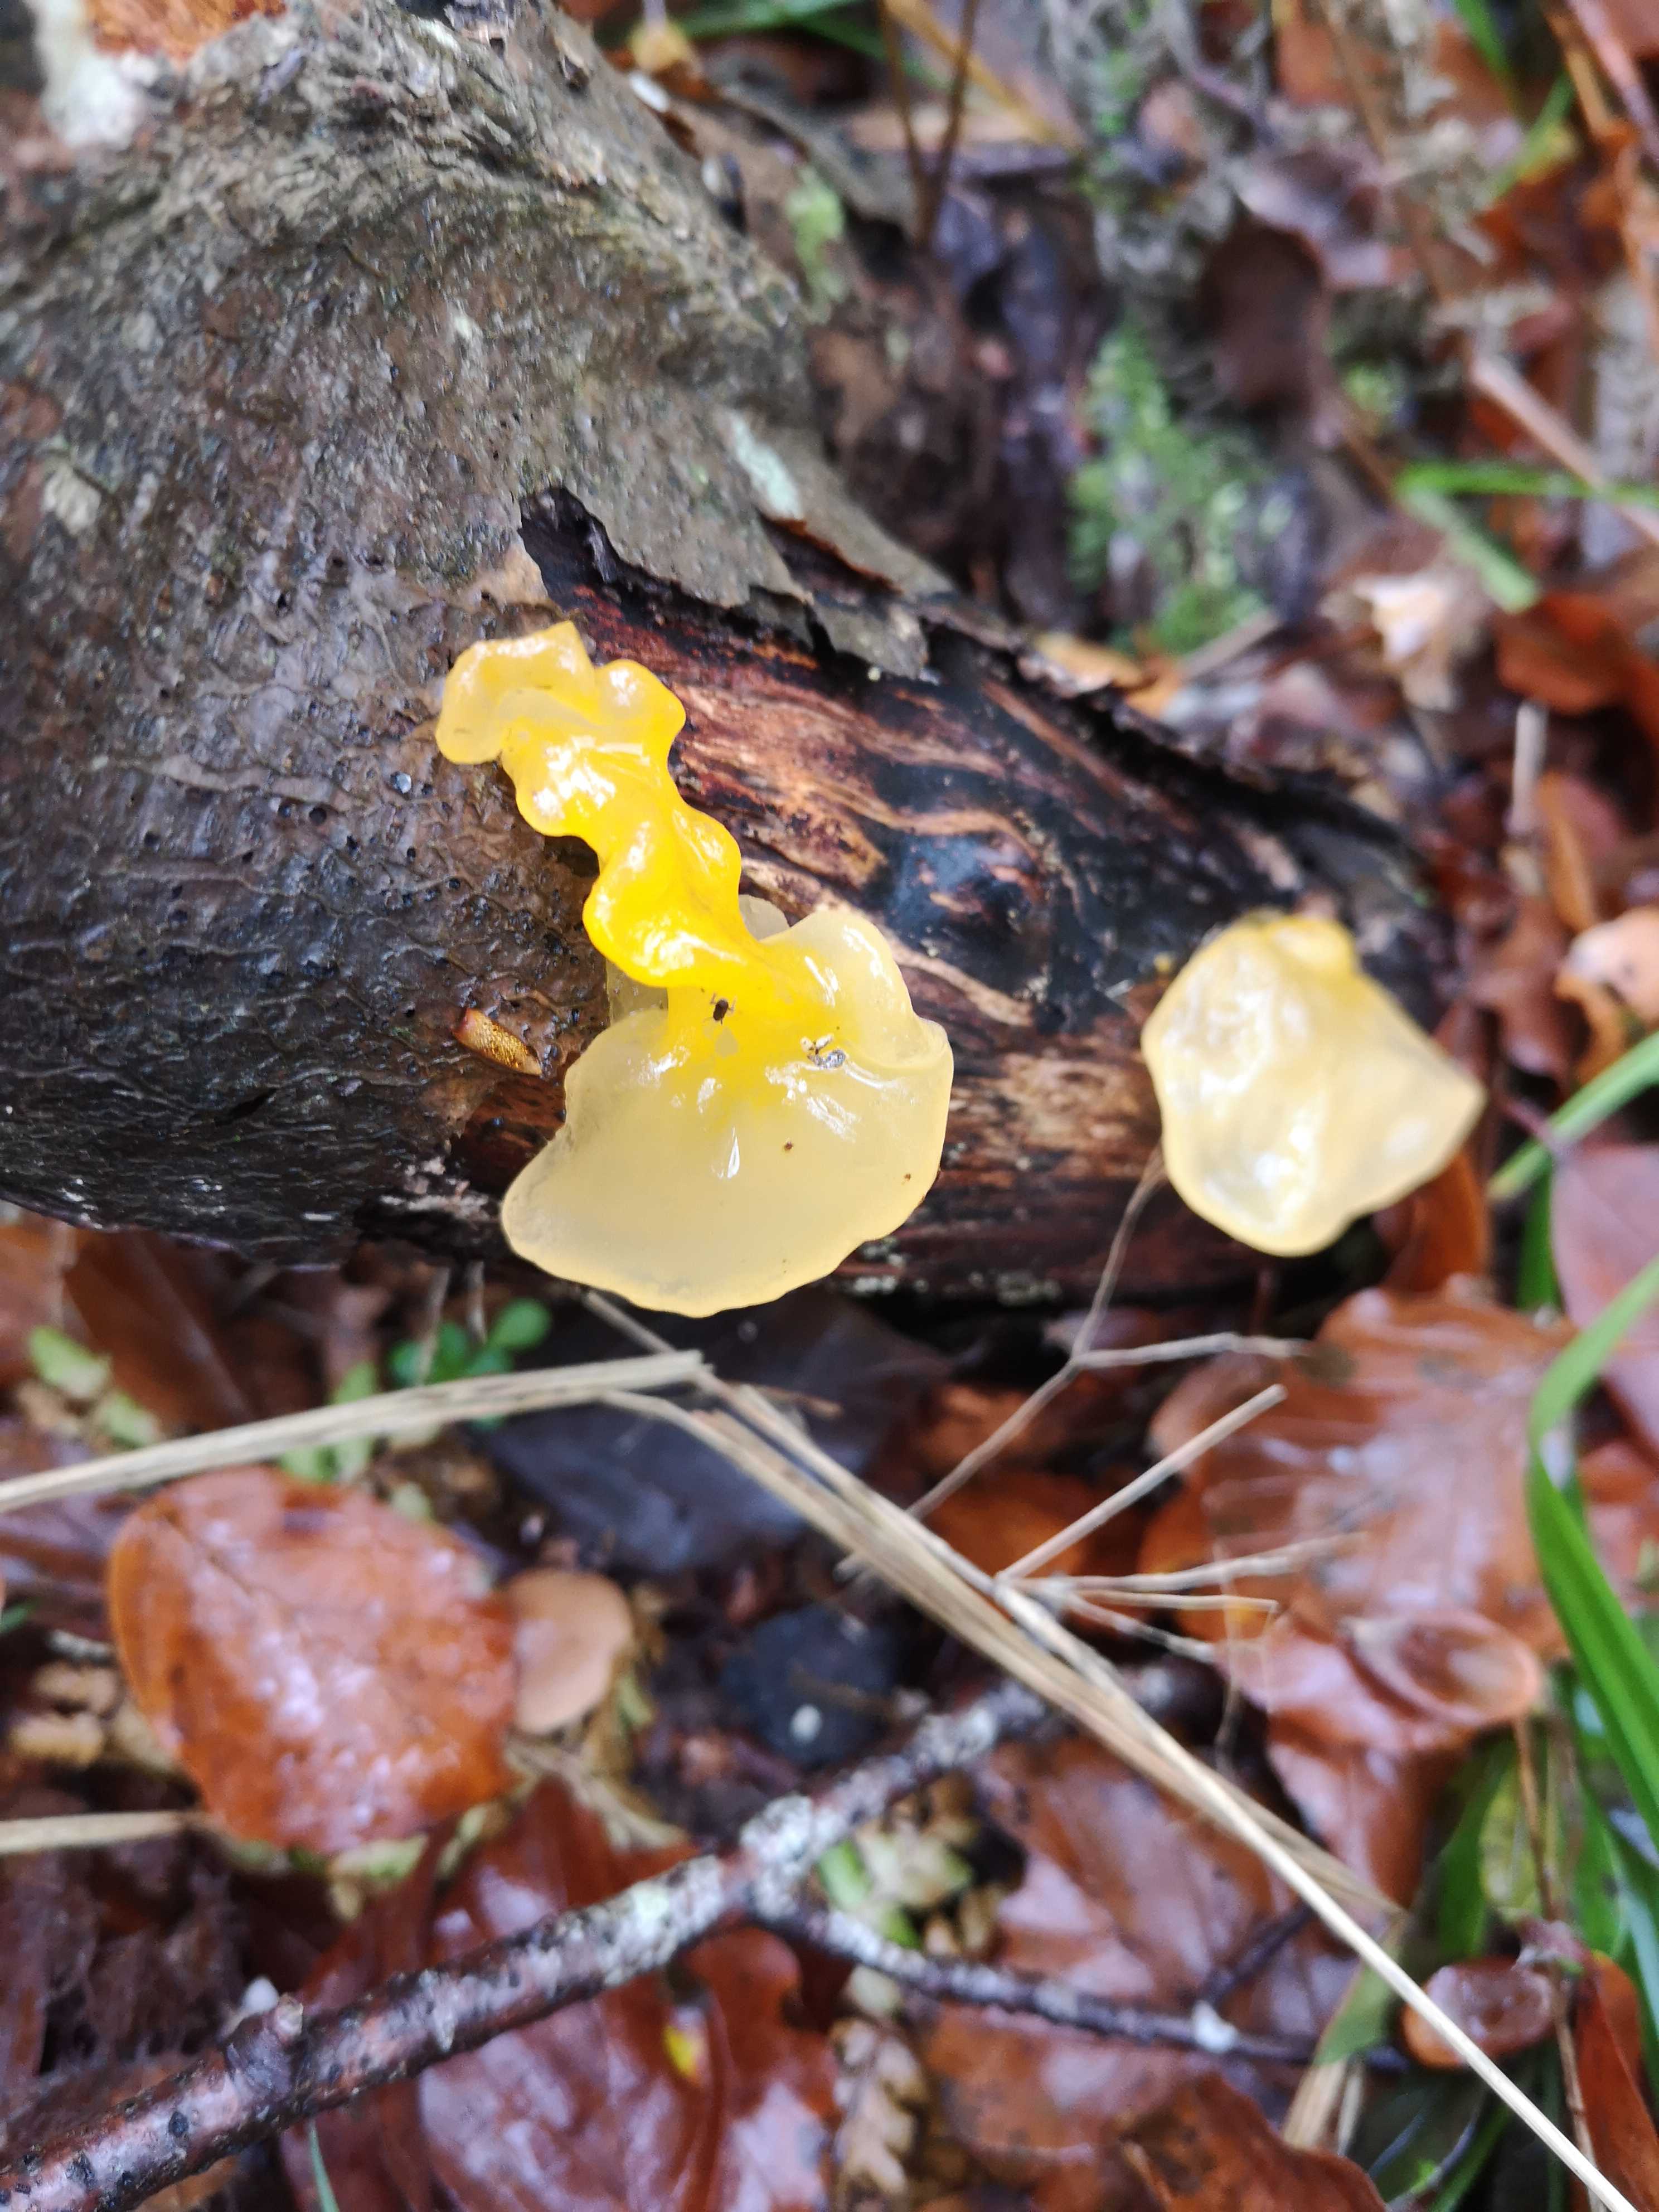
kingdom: Fungi
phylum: Basidiomycota
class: Tremellomycetes
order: Tremellales
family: Tremellaceae
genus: Tremella
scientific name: Tremella mesenterica
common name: gul bævresvamp
